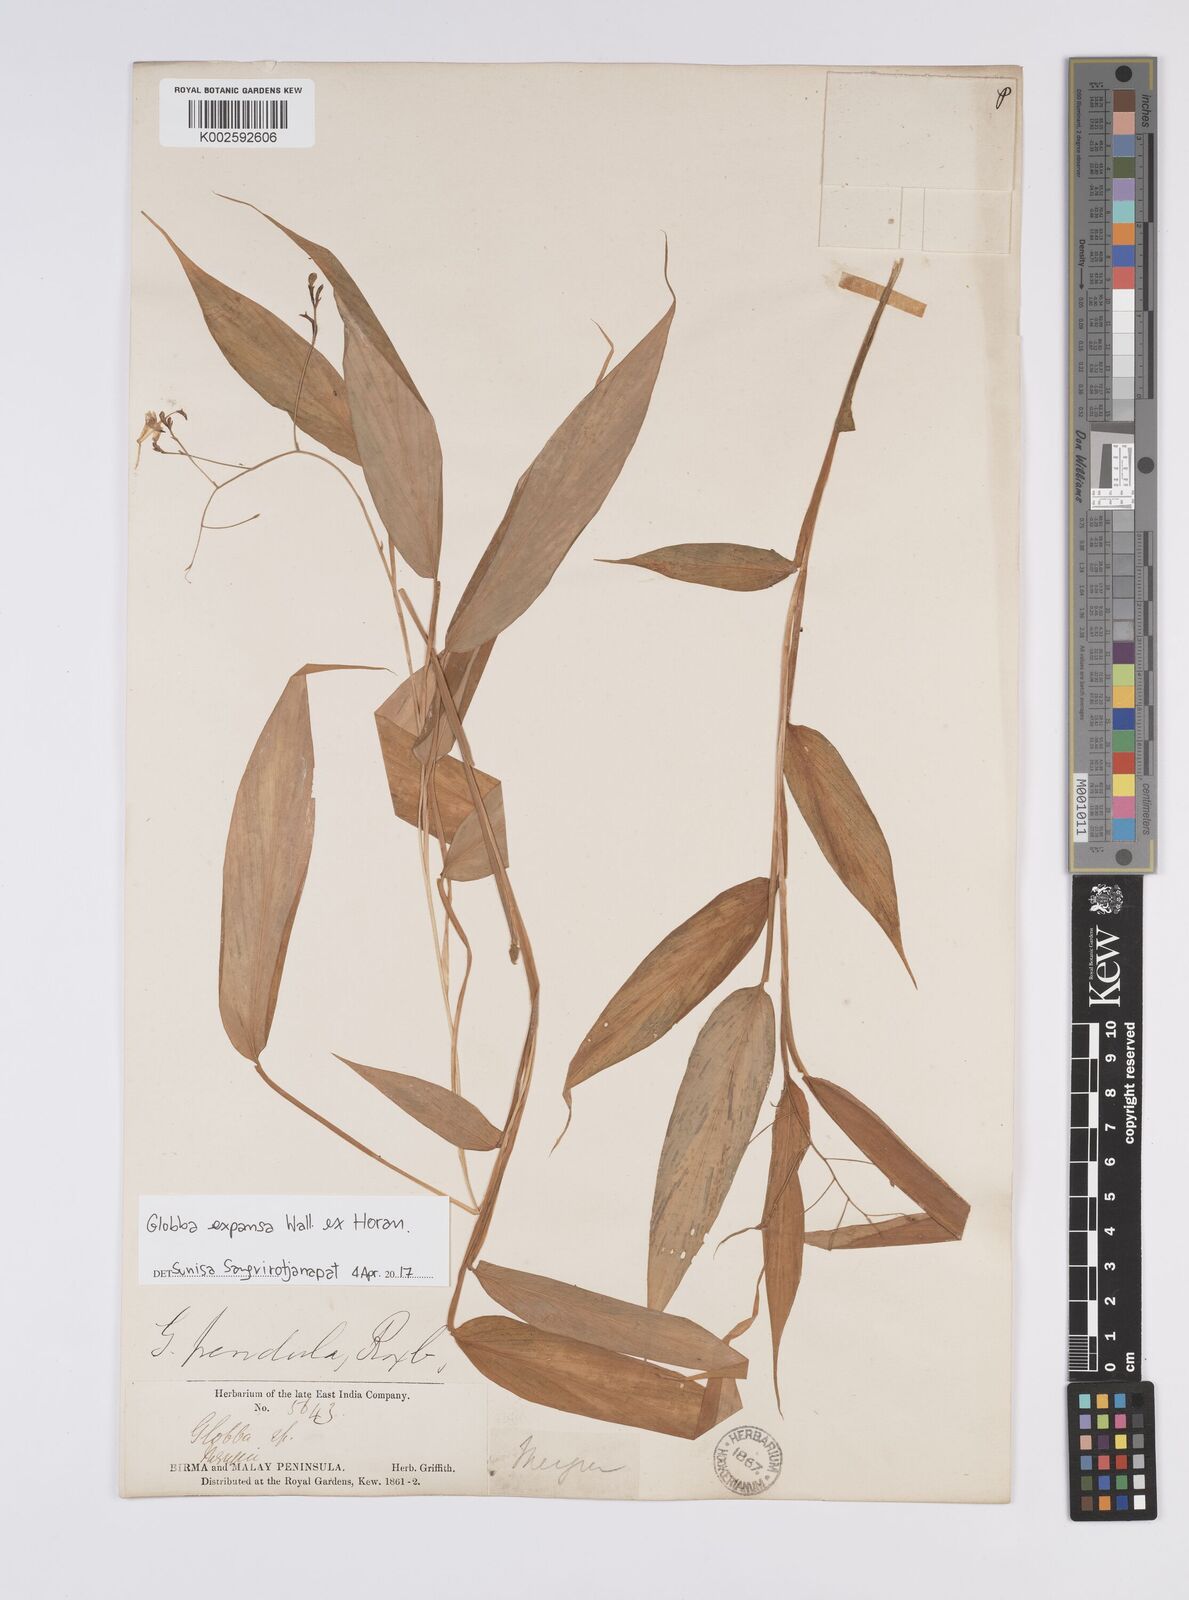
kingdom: Plantae
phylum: Tracheophyta
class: Liliopsida
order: Zingiberales
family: Zingiberaceae
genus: Globba
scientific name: Globba expansa
